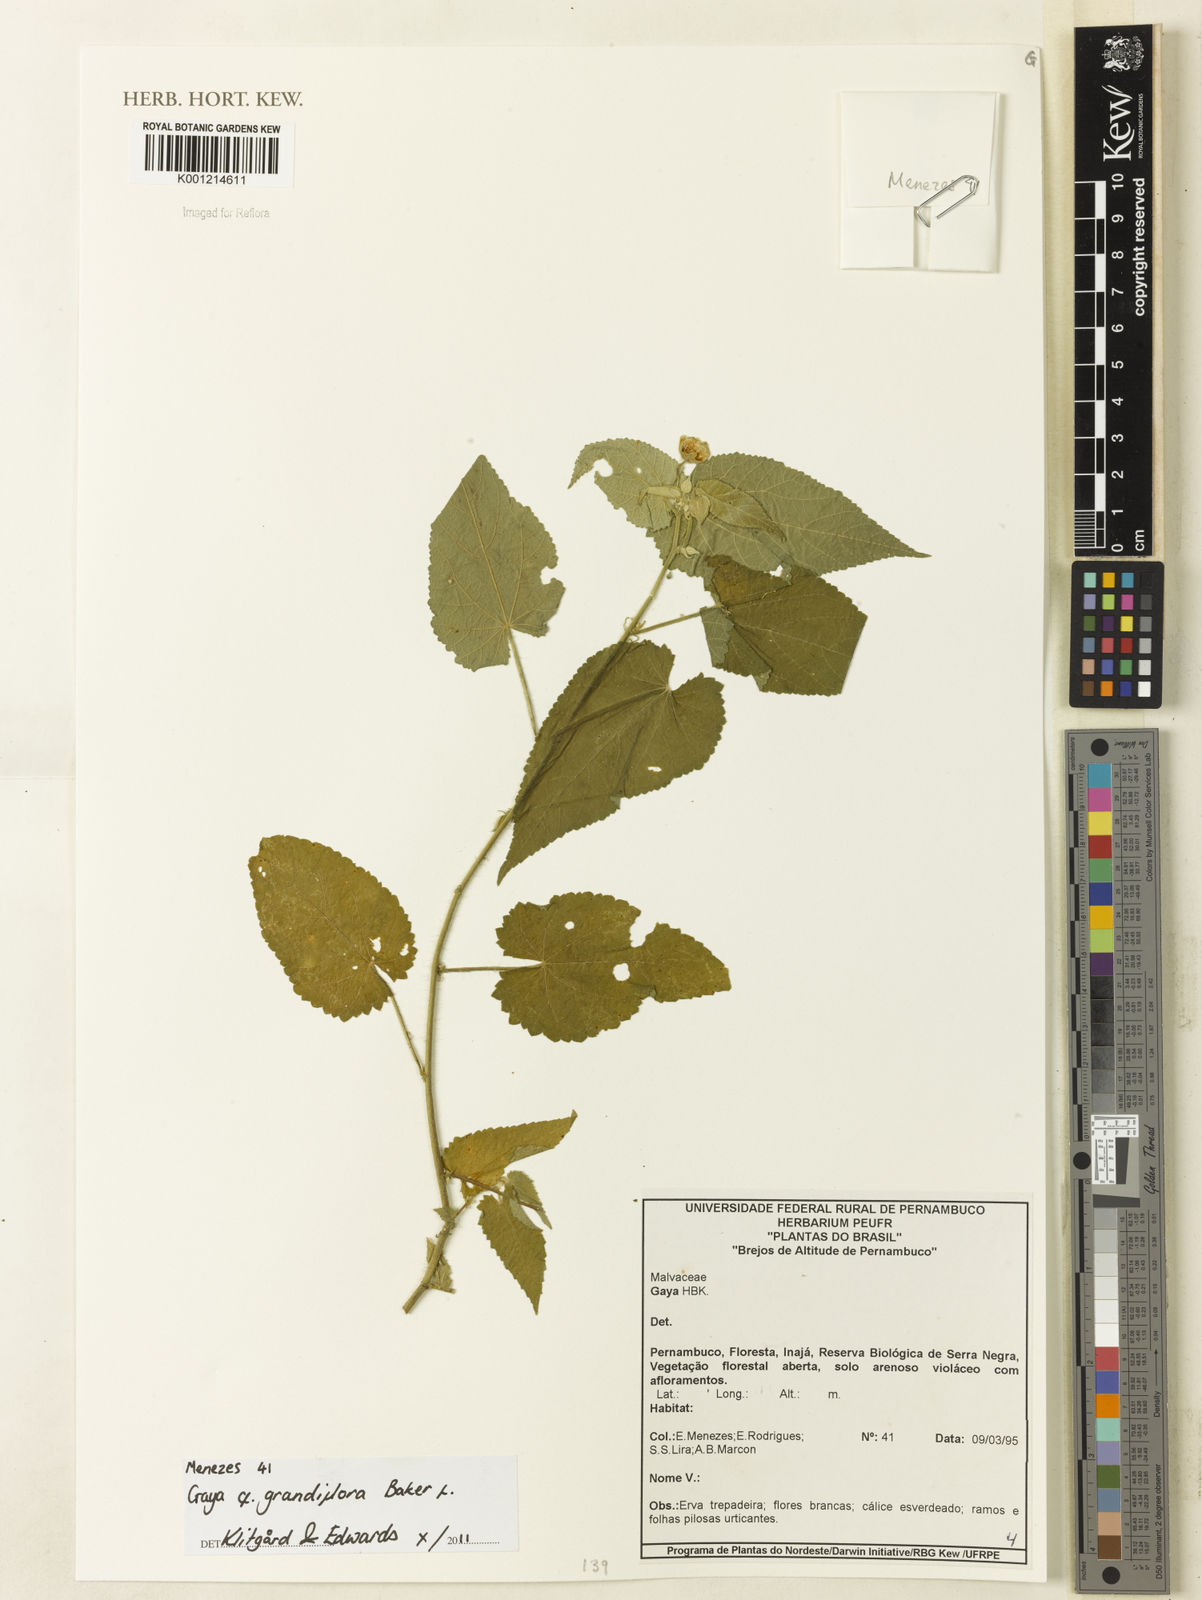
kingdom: Plantae
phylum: Tracheophyta
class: Magnoliopsida
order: Malvales
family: Malvaceae
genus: Gaya
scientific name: Gaya grandiflora
